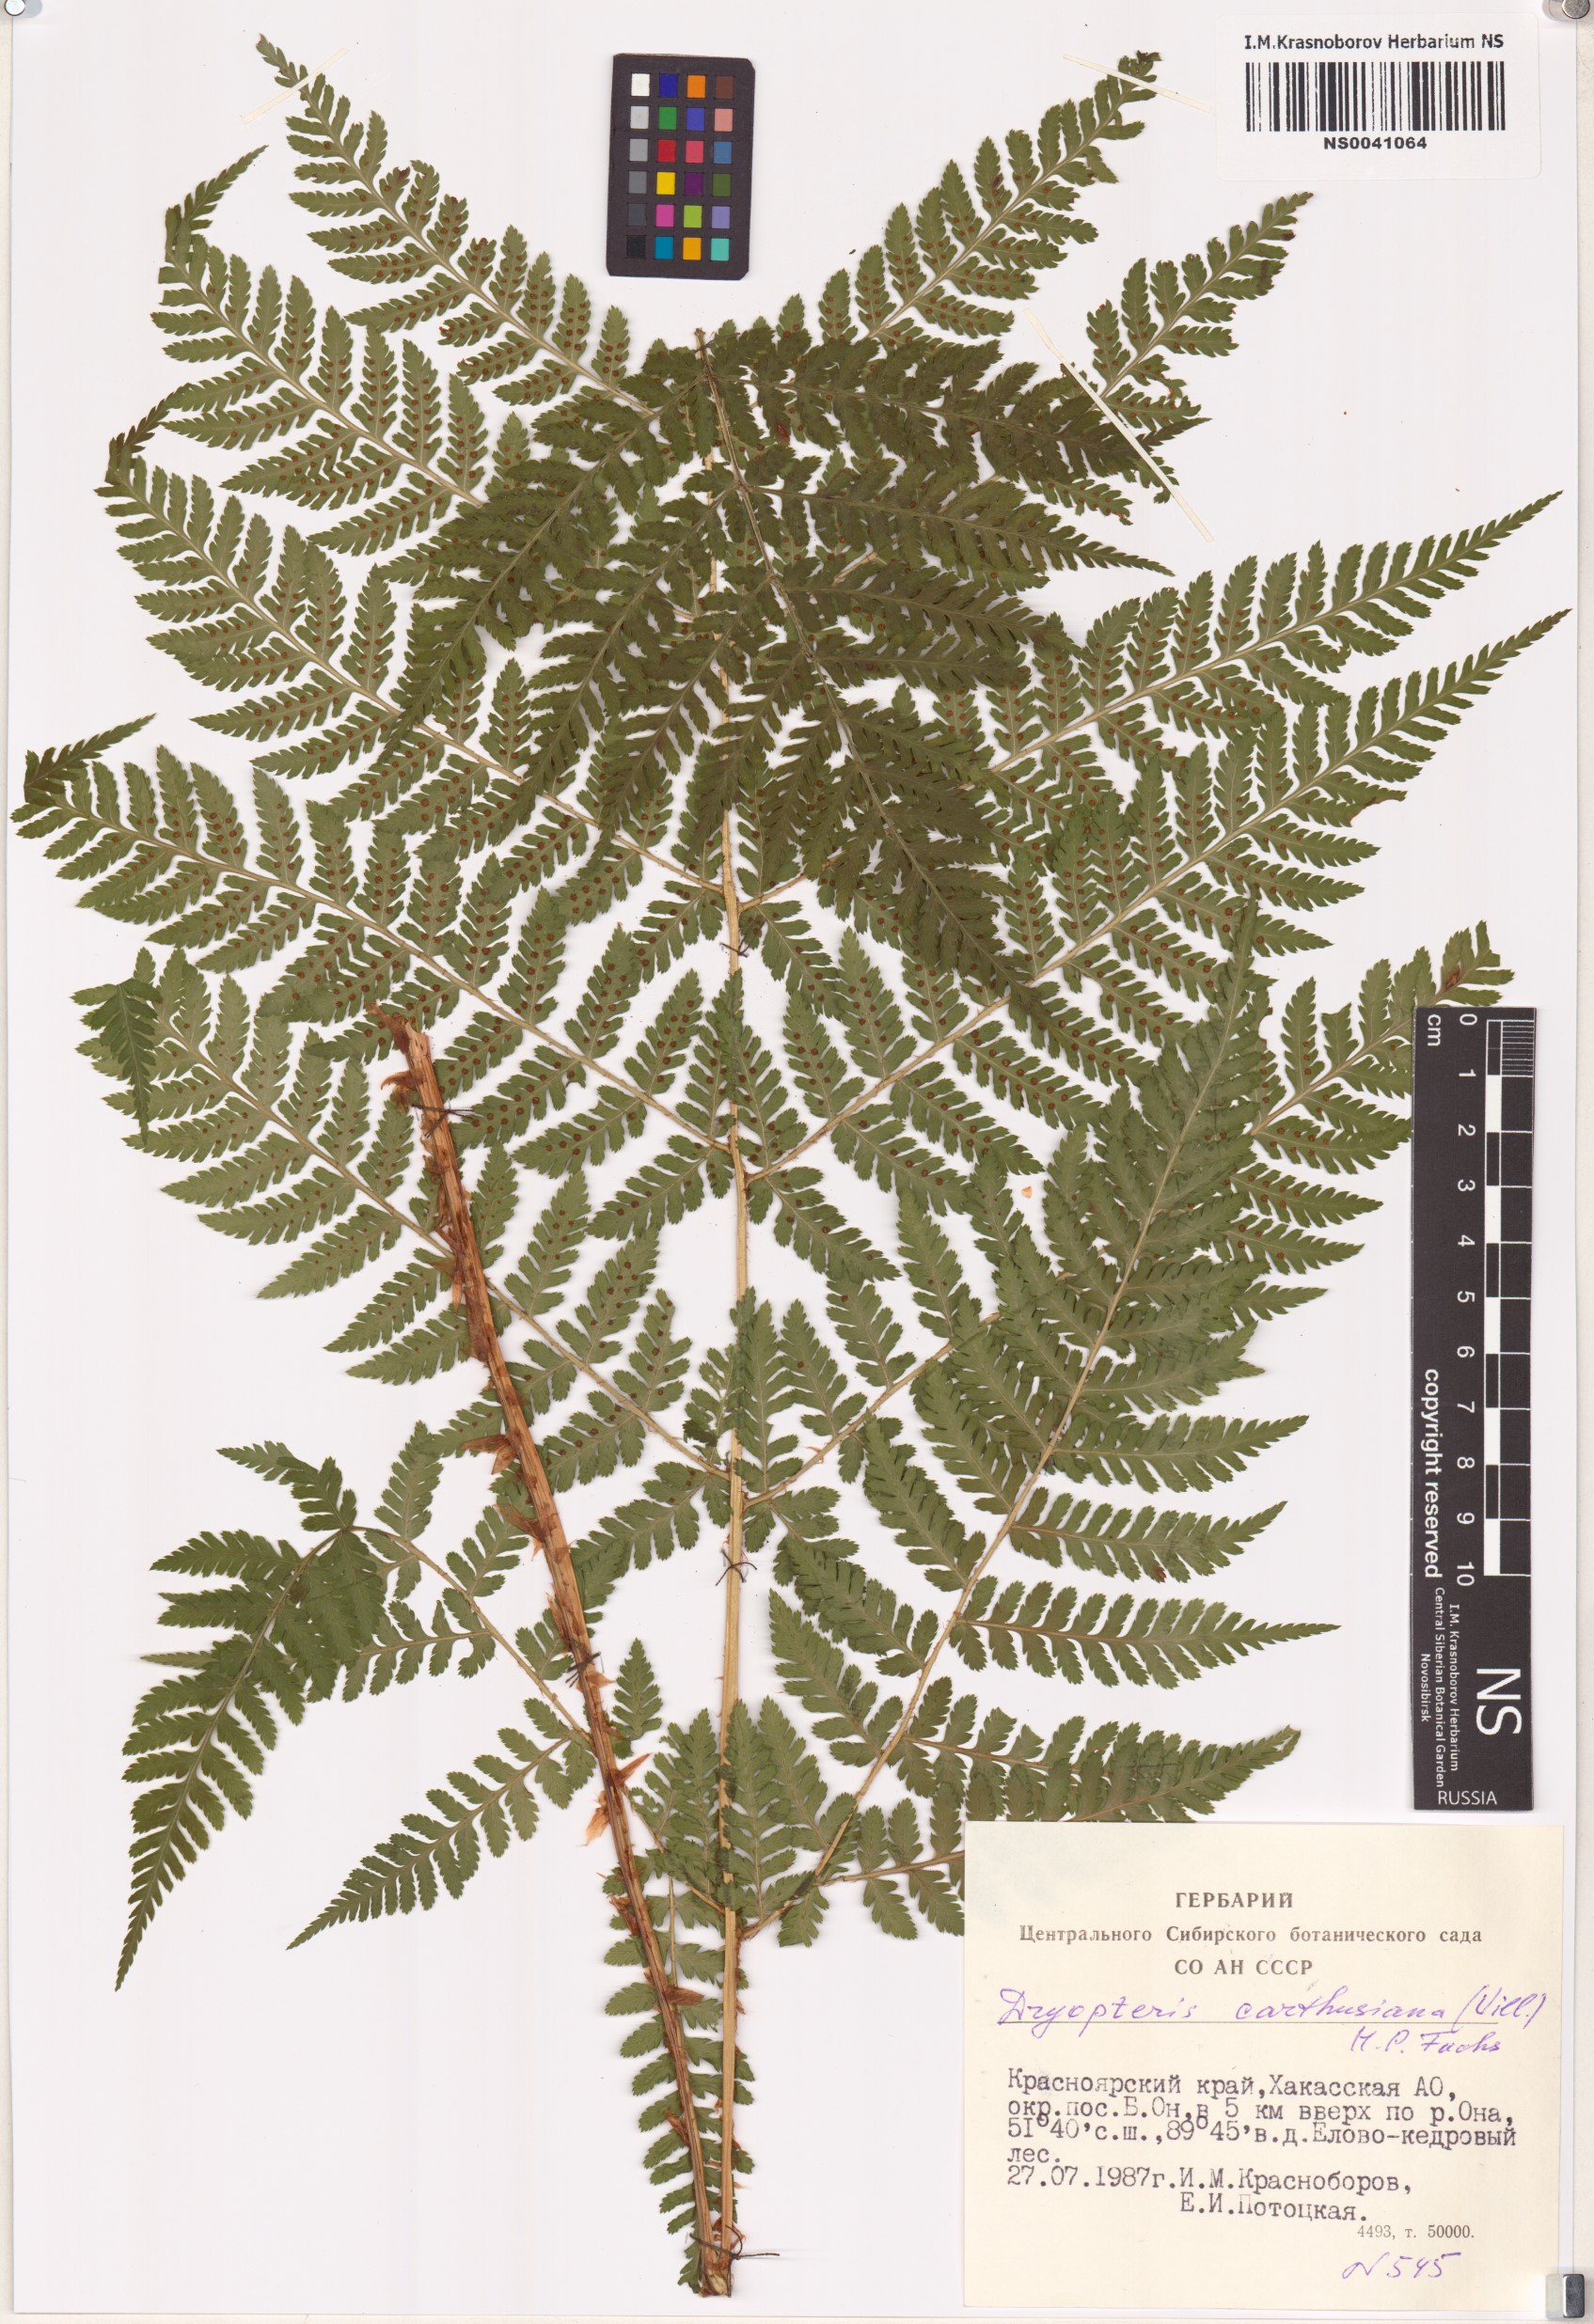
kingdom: Plantae
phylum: Tracheophyta
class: Polypodiopsida
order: Polypodiales
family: Dryopteridaceae
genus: Dryopteris
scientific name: Dryopteris carthusiana
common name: Narrow buckler-fern
